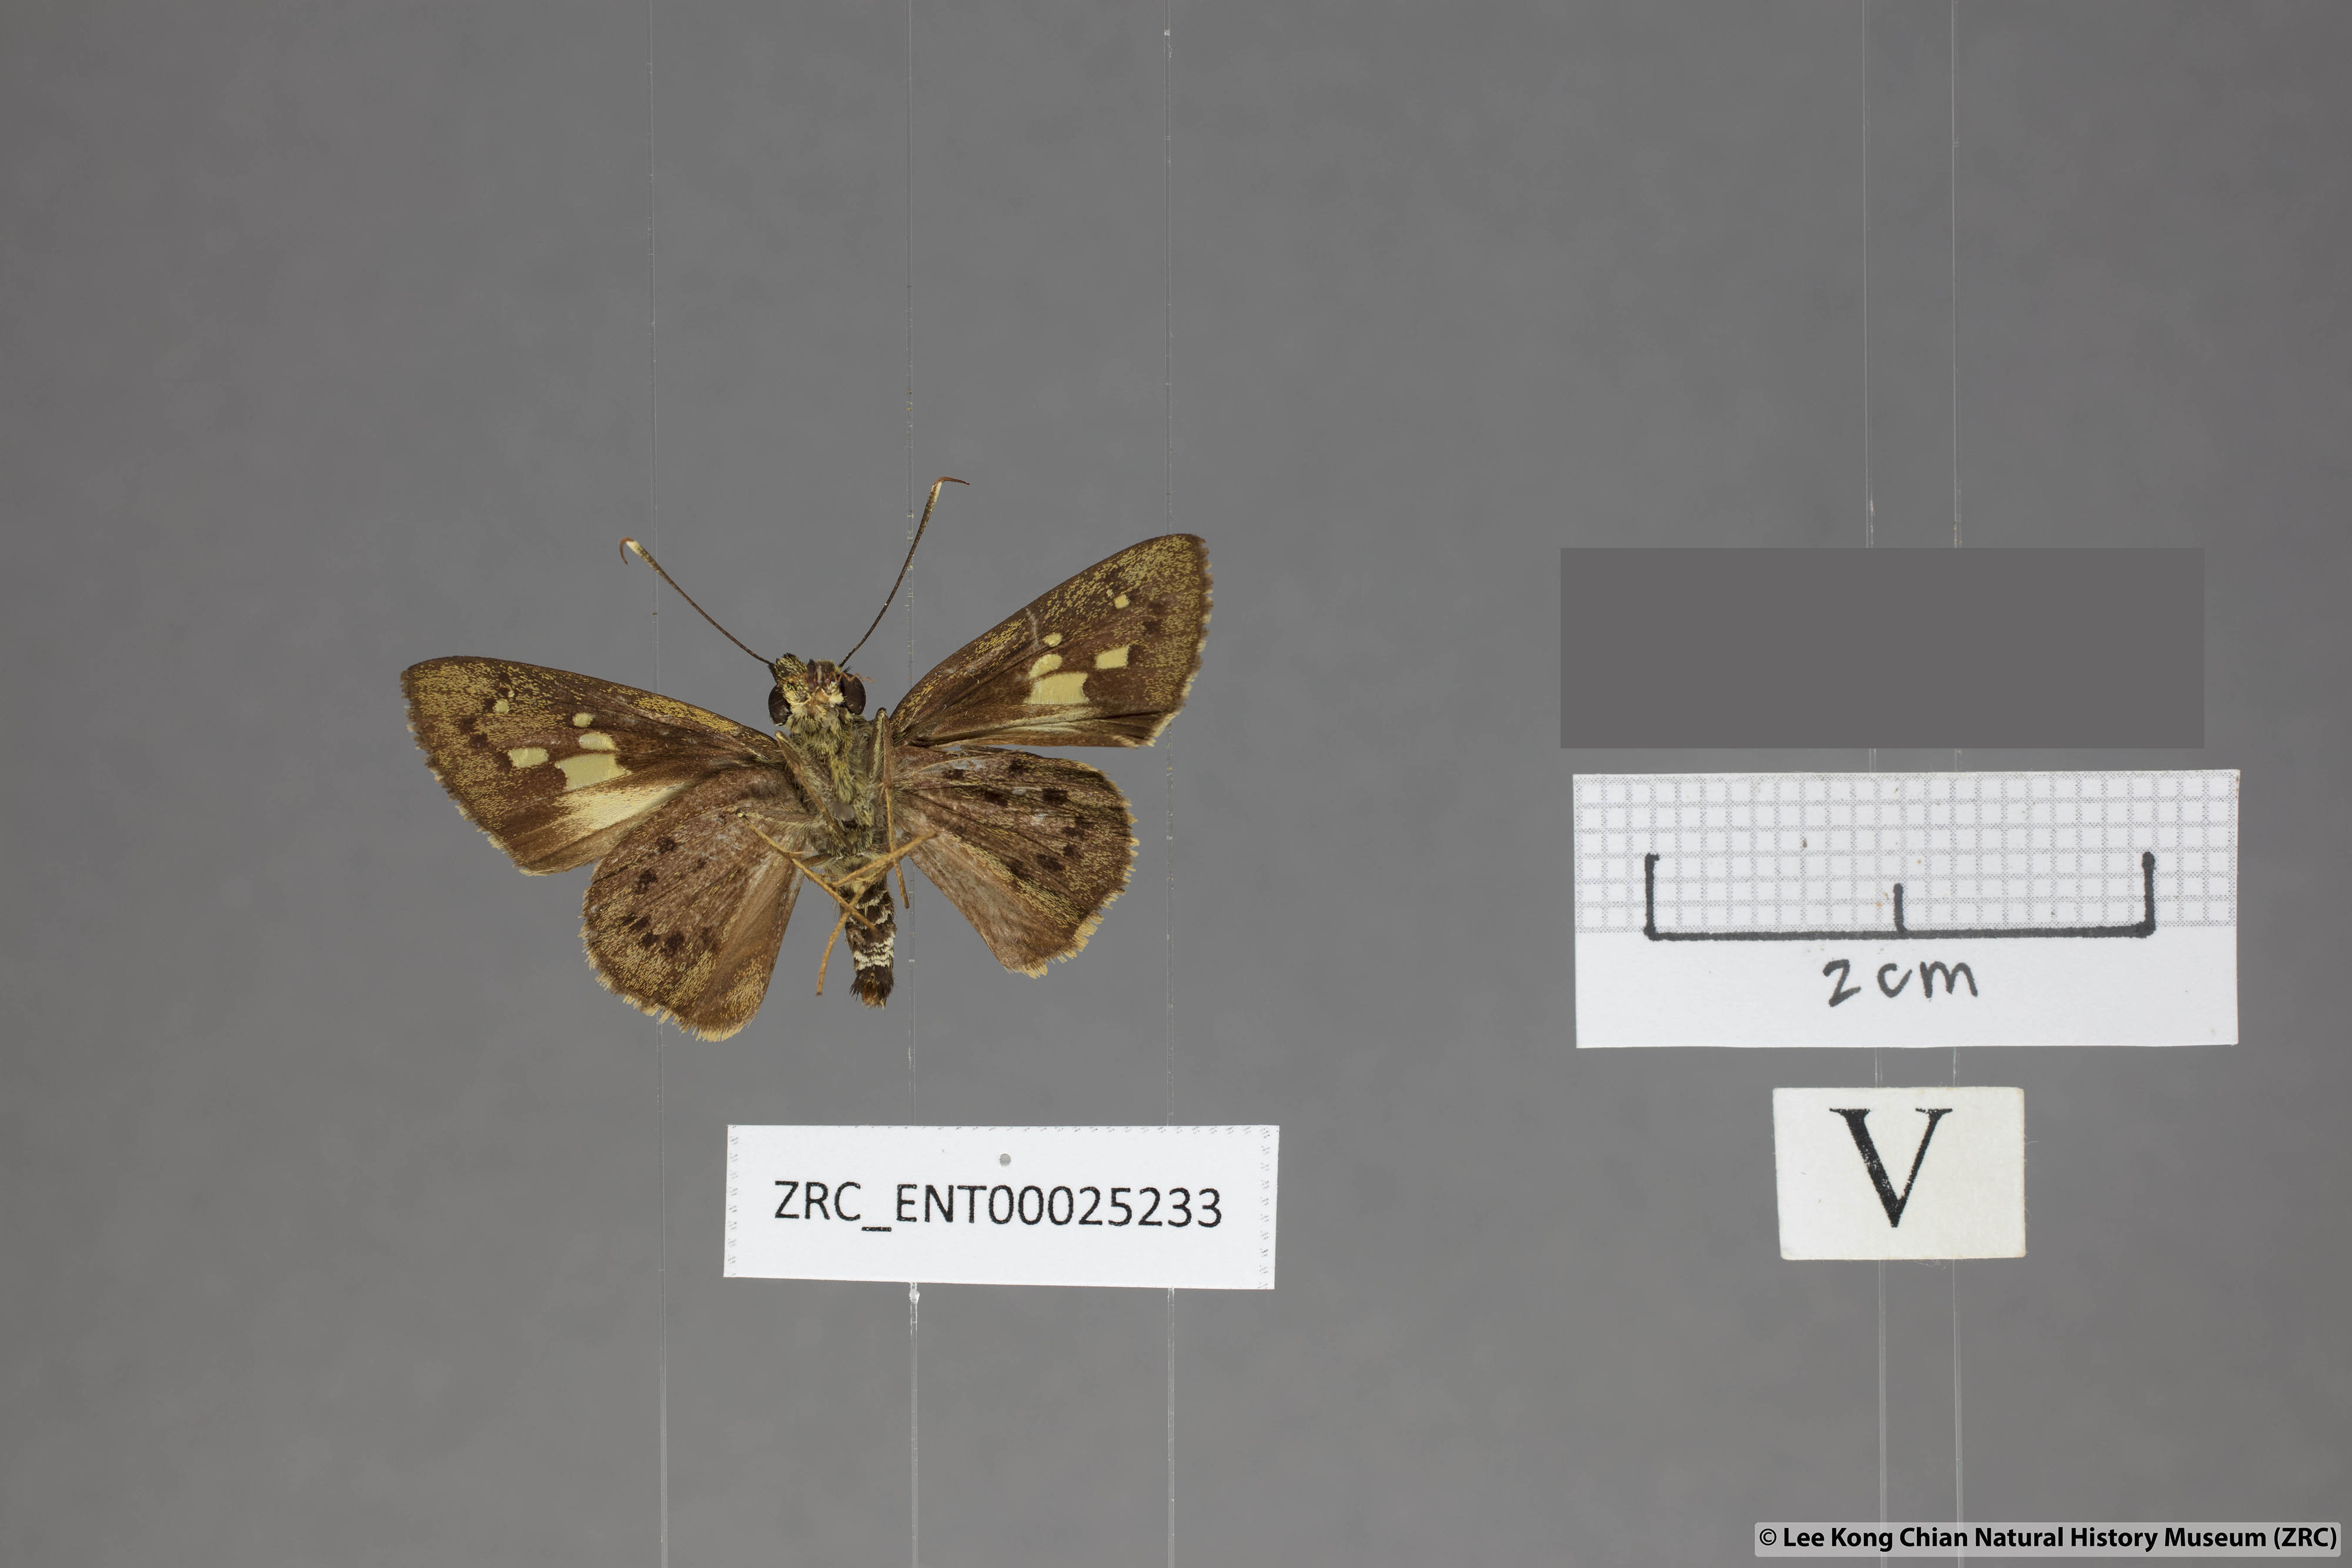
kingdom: Animalia
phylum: Arthropoda
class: Insecta
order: Lepidoptera
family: Hesperiidae
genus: Salanoemia
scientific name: Salanoemia fuscicornis
